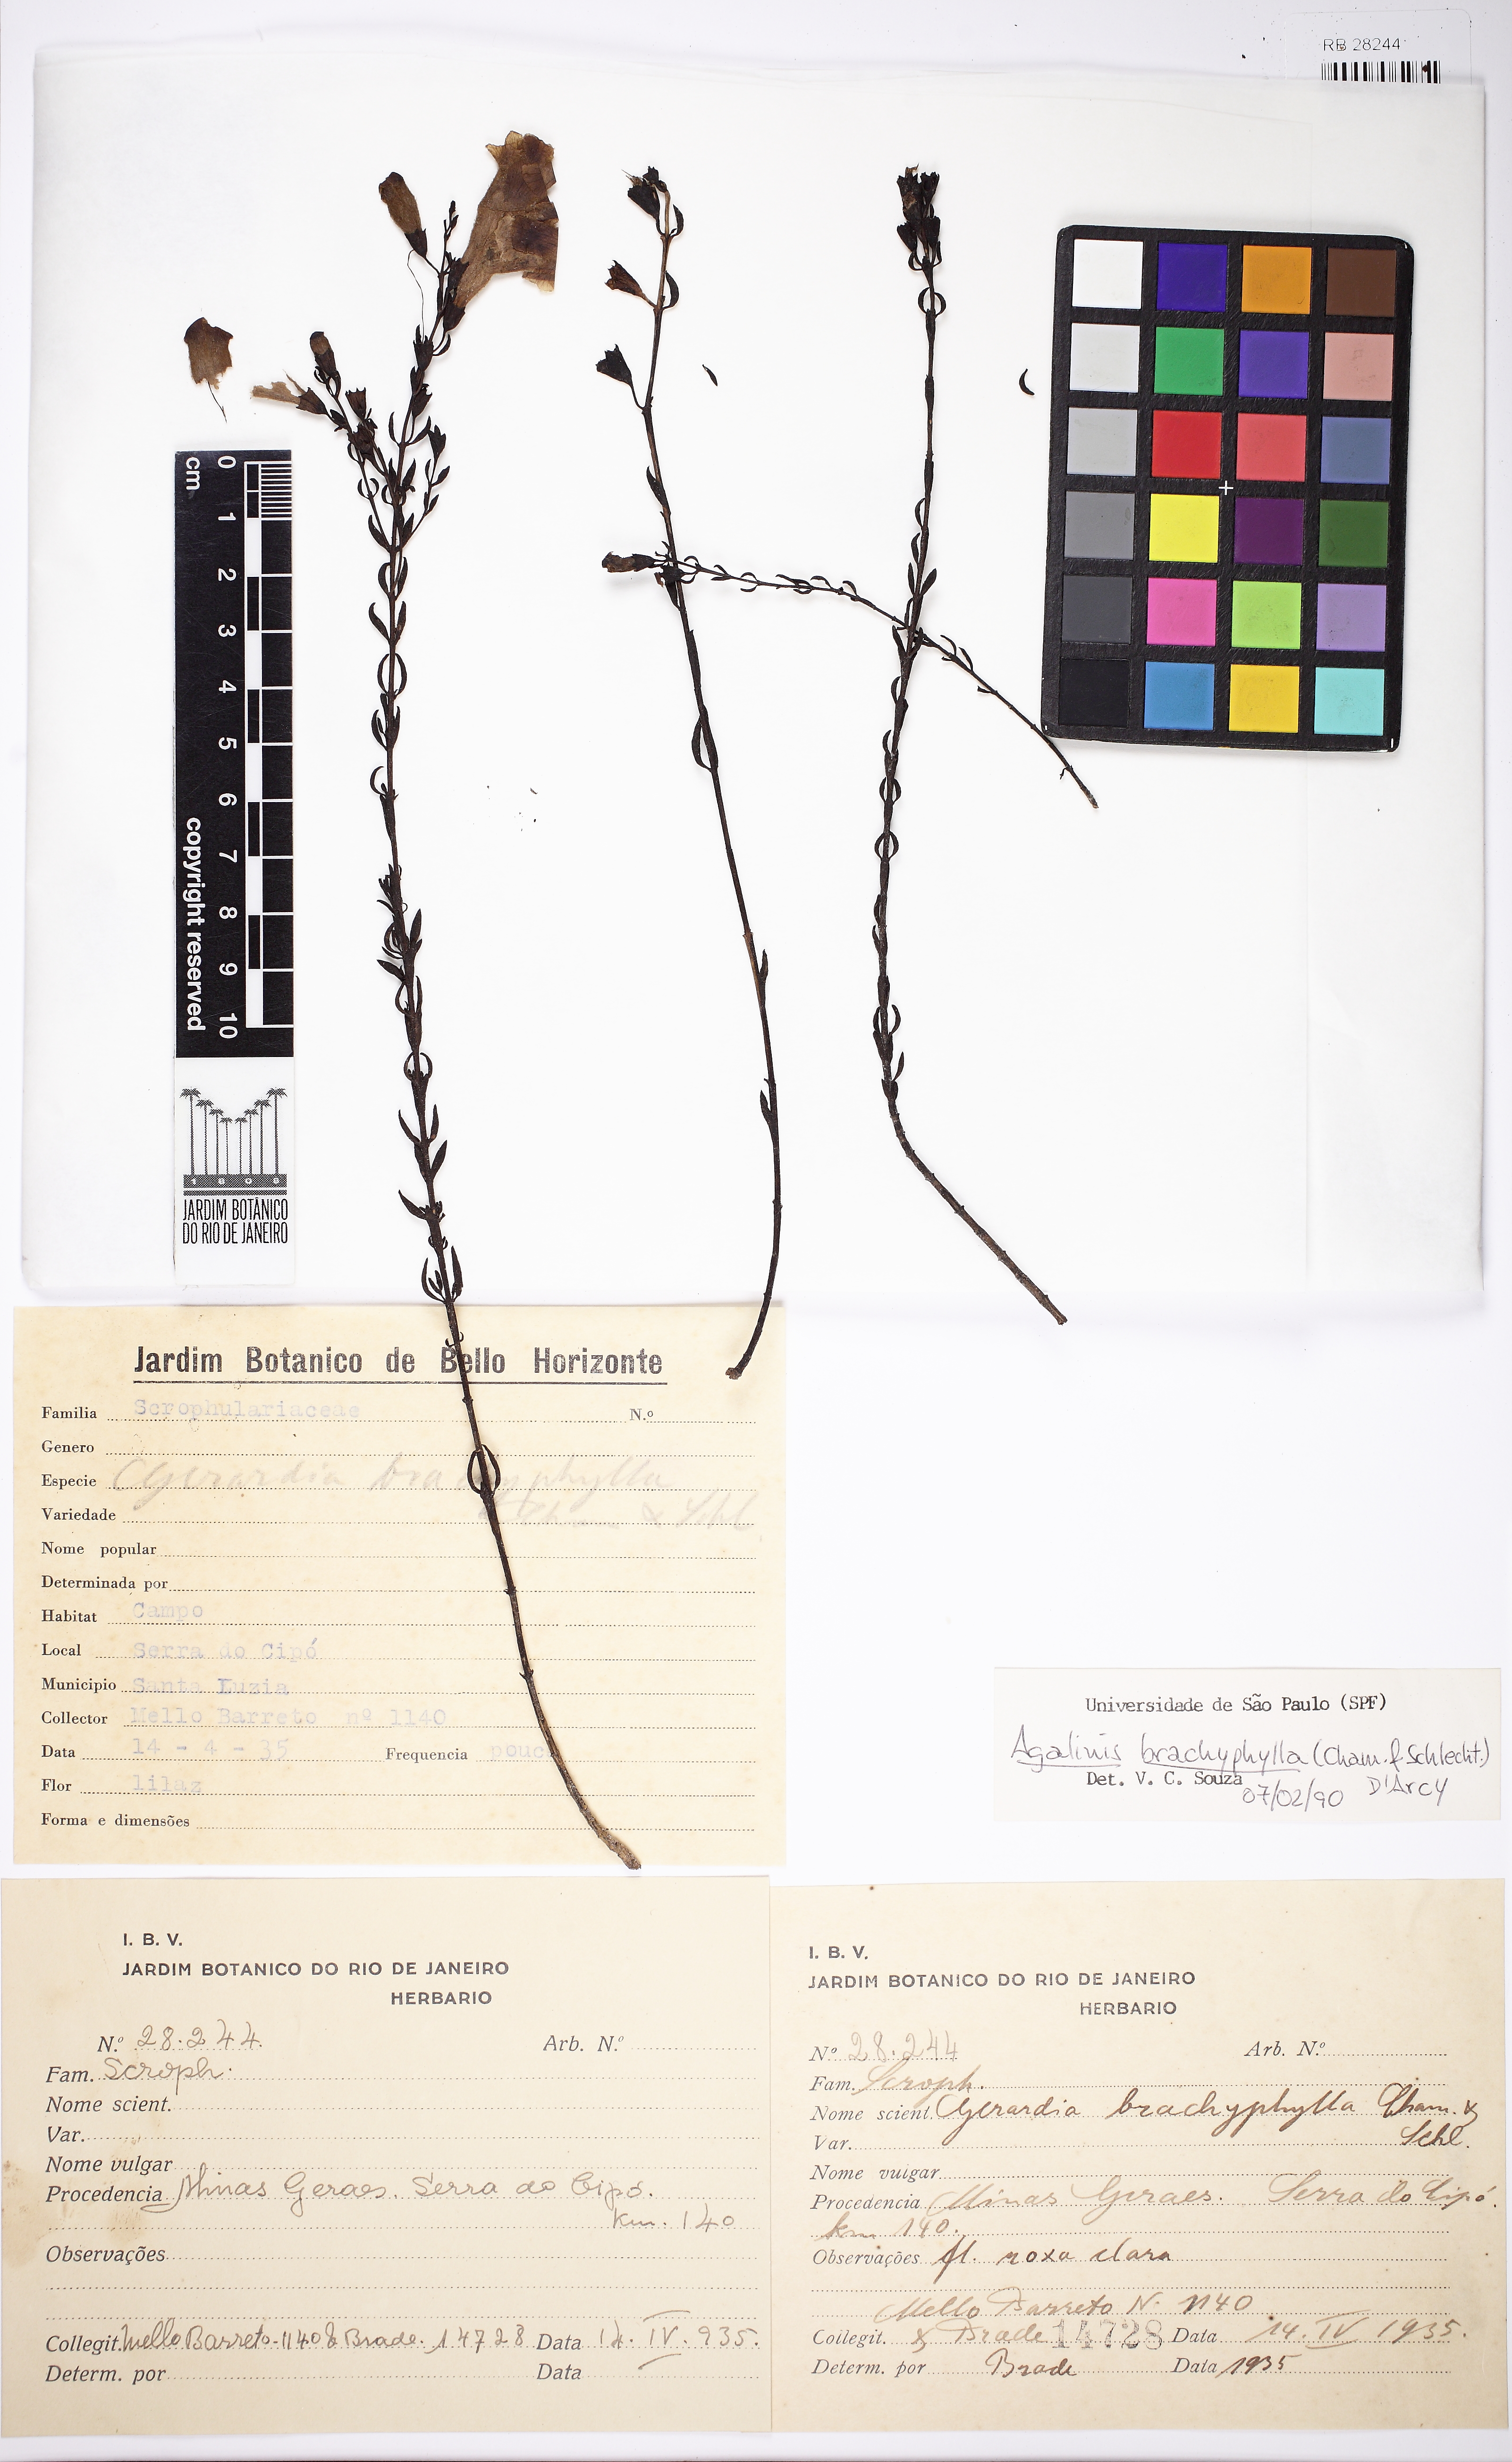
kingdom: Plantae
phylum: Tracheophyta
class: Magnoliopsida
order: Lamiales
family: Scrophulariaceae
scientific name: Scrophulariaceae
